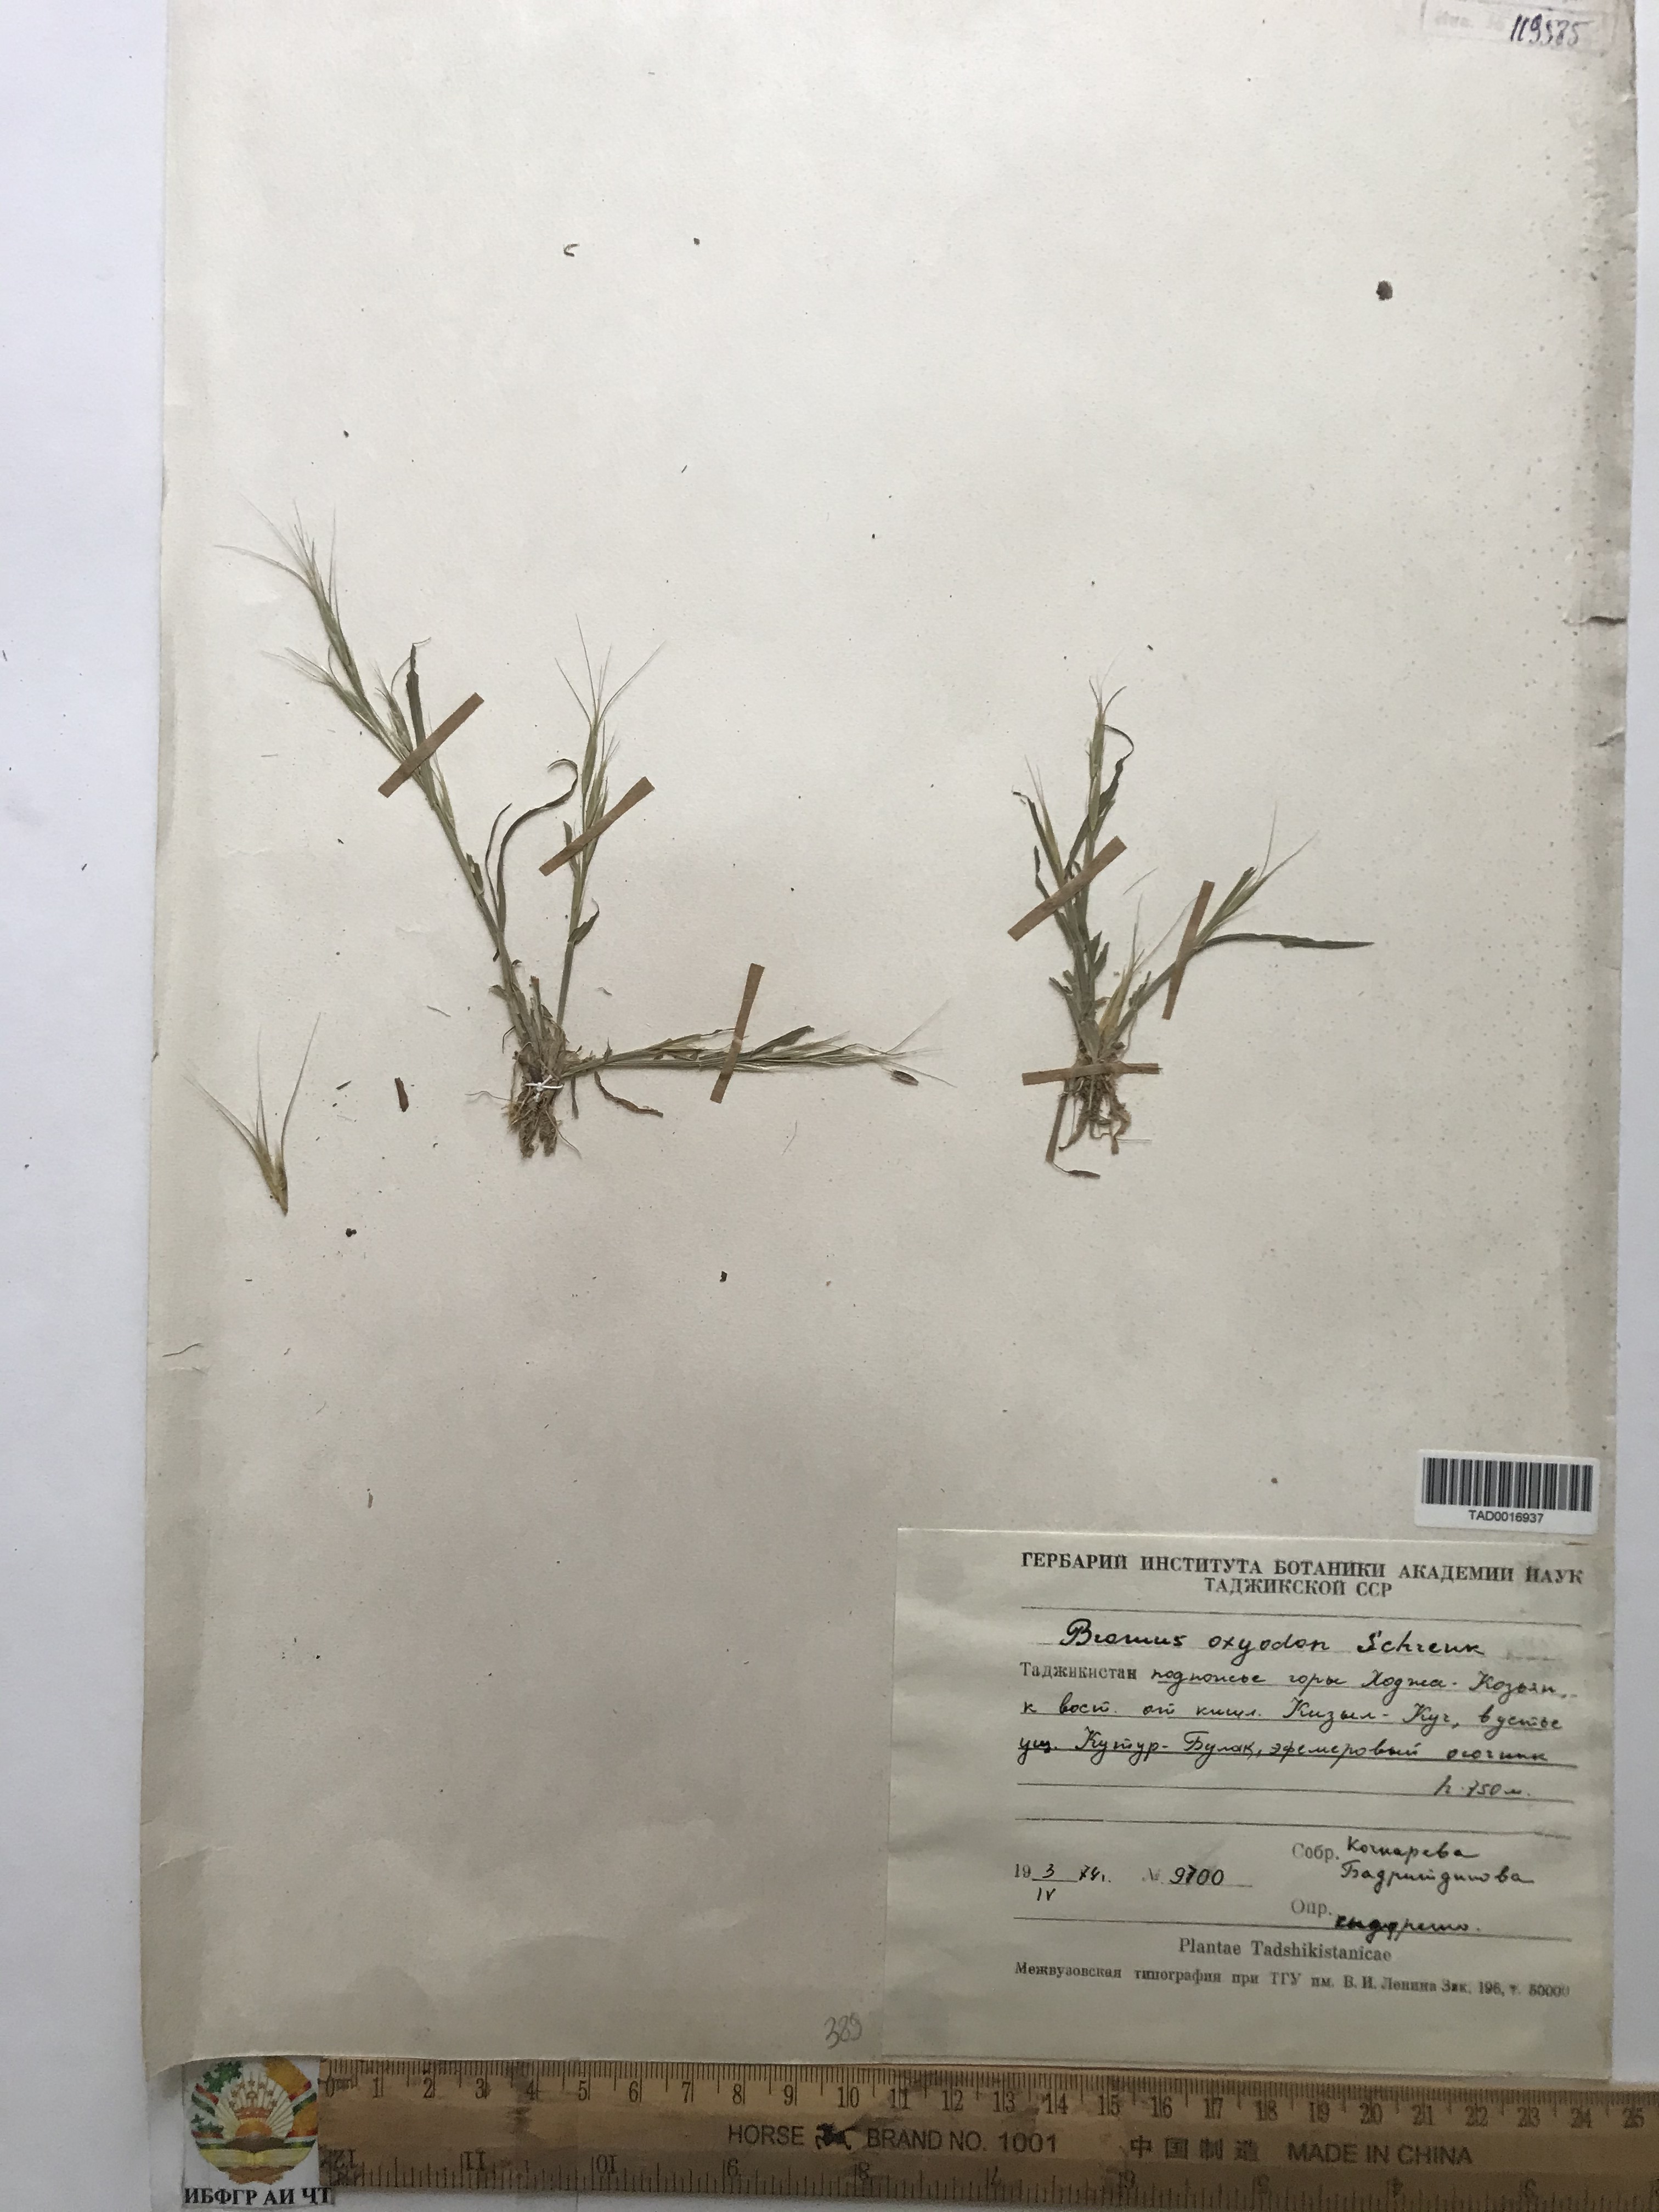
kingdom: Plantae
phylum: Tracheophyta
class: Liliopsida
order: Poales
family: Poaceae
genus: Bromus
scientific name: Bromus oxyodon
